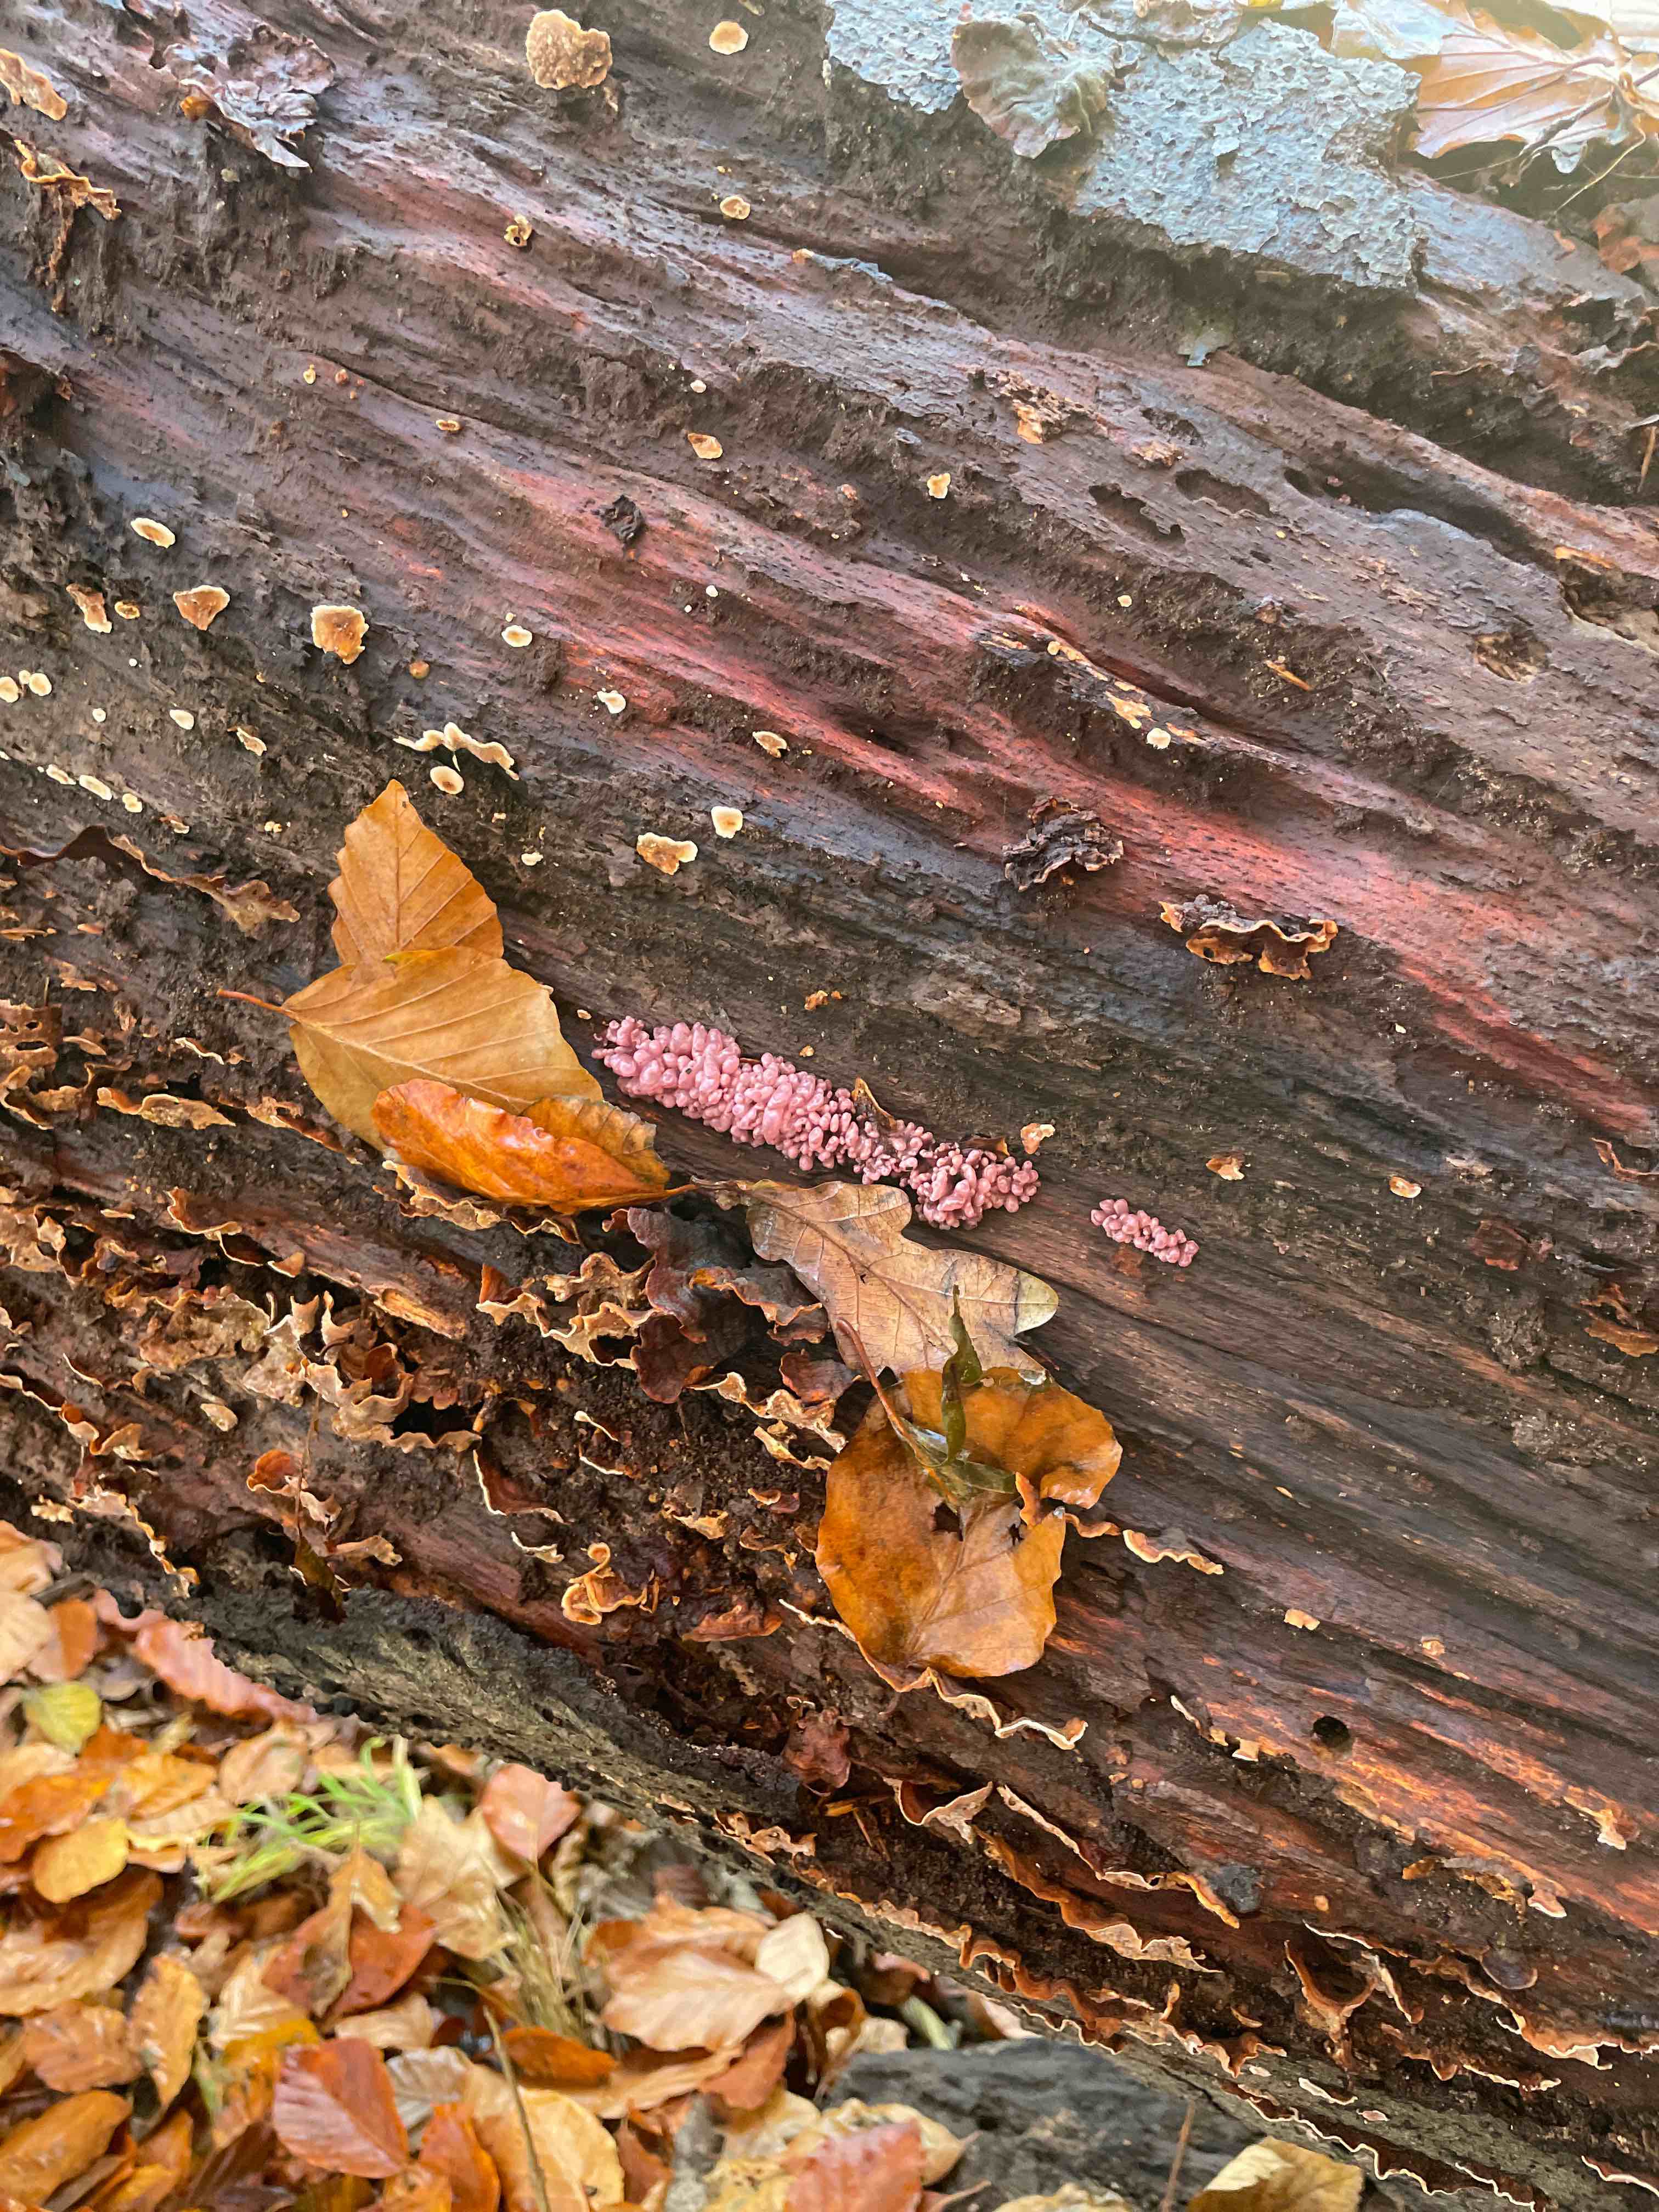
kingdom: Fungi
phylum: Ascomycota
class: Leotiomycetes
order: Helotiales
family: Gelatinodiscaceae
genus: Ascocoryne
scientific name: Ascocoryne sarcoides
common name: rødlilla sejskive
